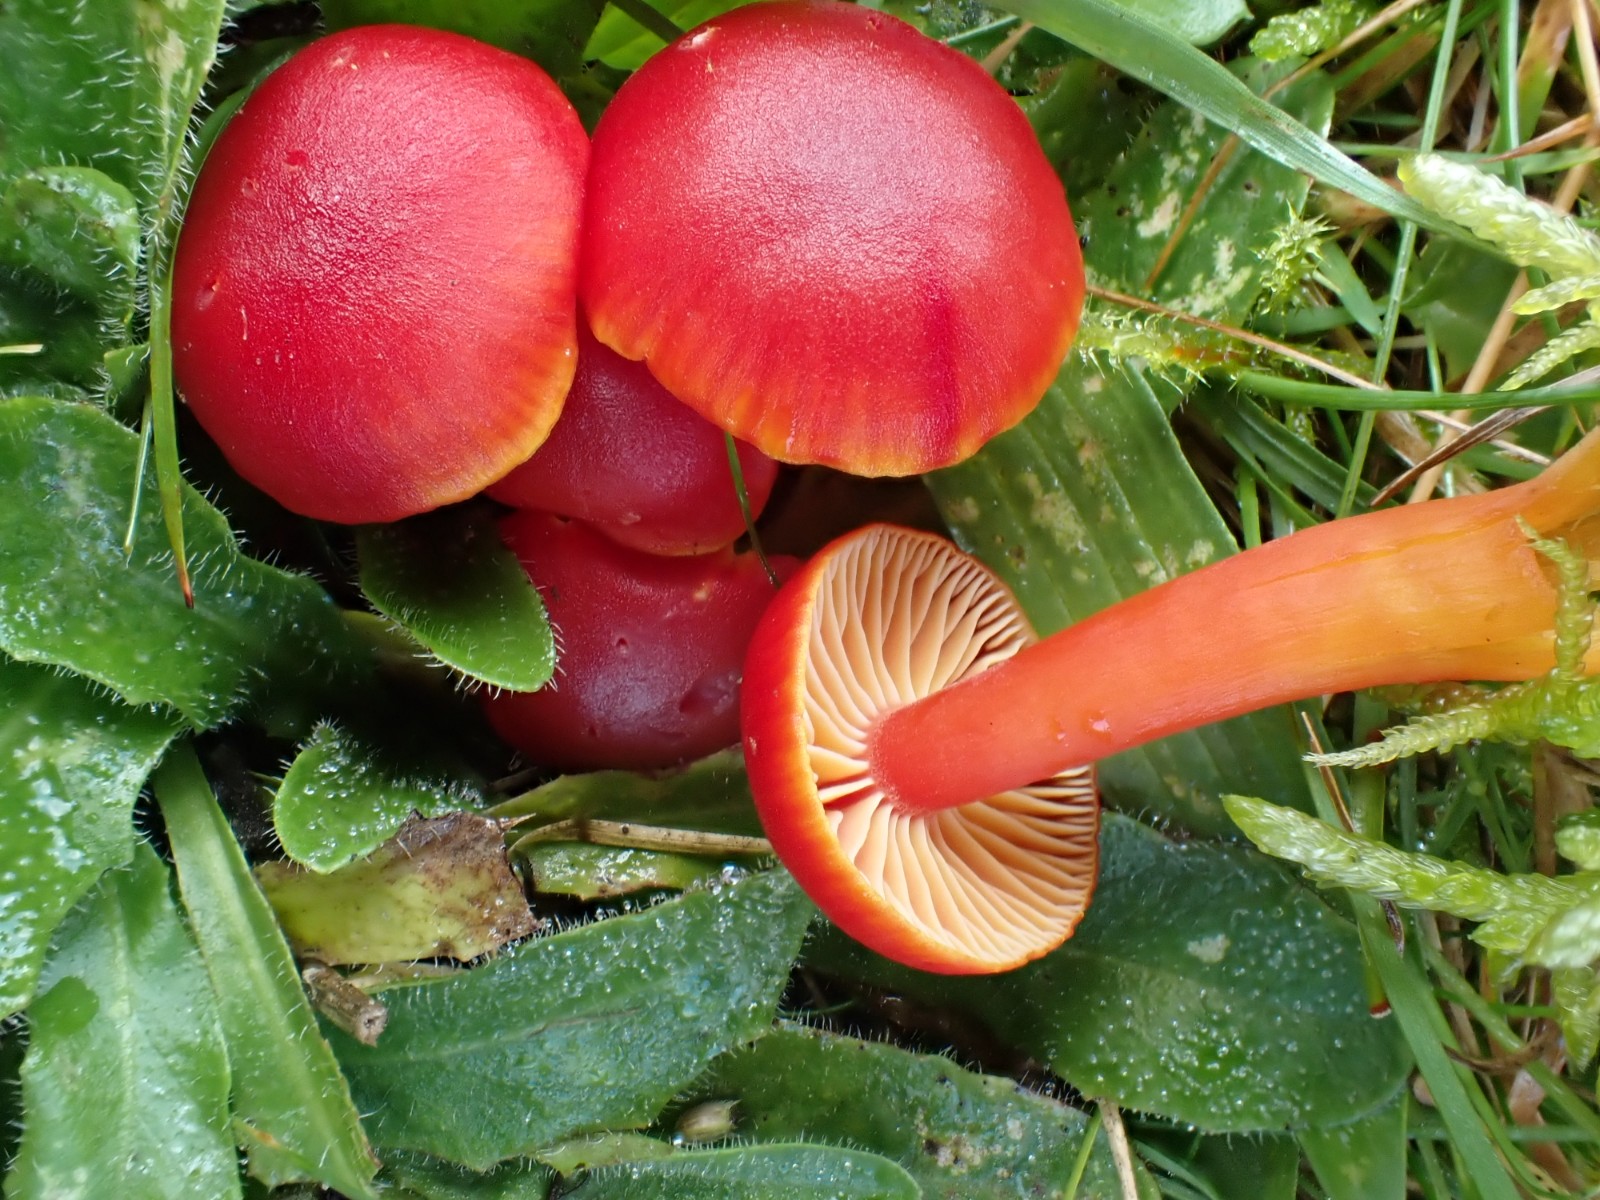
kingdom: Fungi
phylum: Basidiomycota
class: Agaricomycetes
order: Agaricales
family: Hygrophoraceae
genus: Hygrocybe
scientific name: Hygrocybe coccinea
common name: cinnober-vokshat
